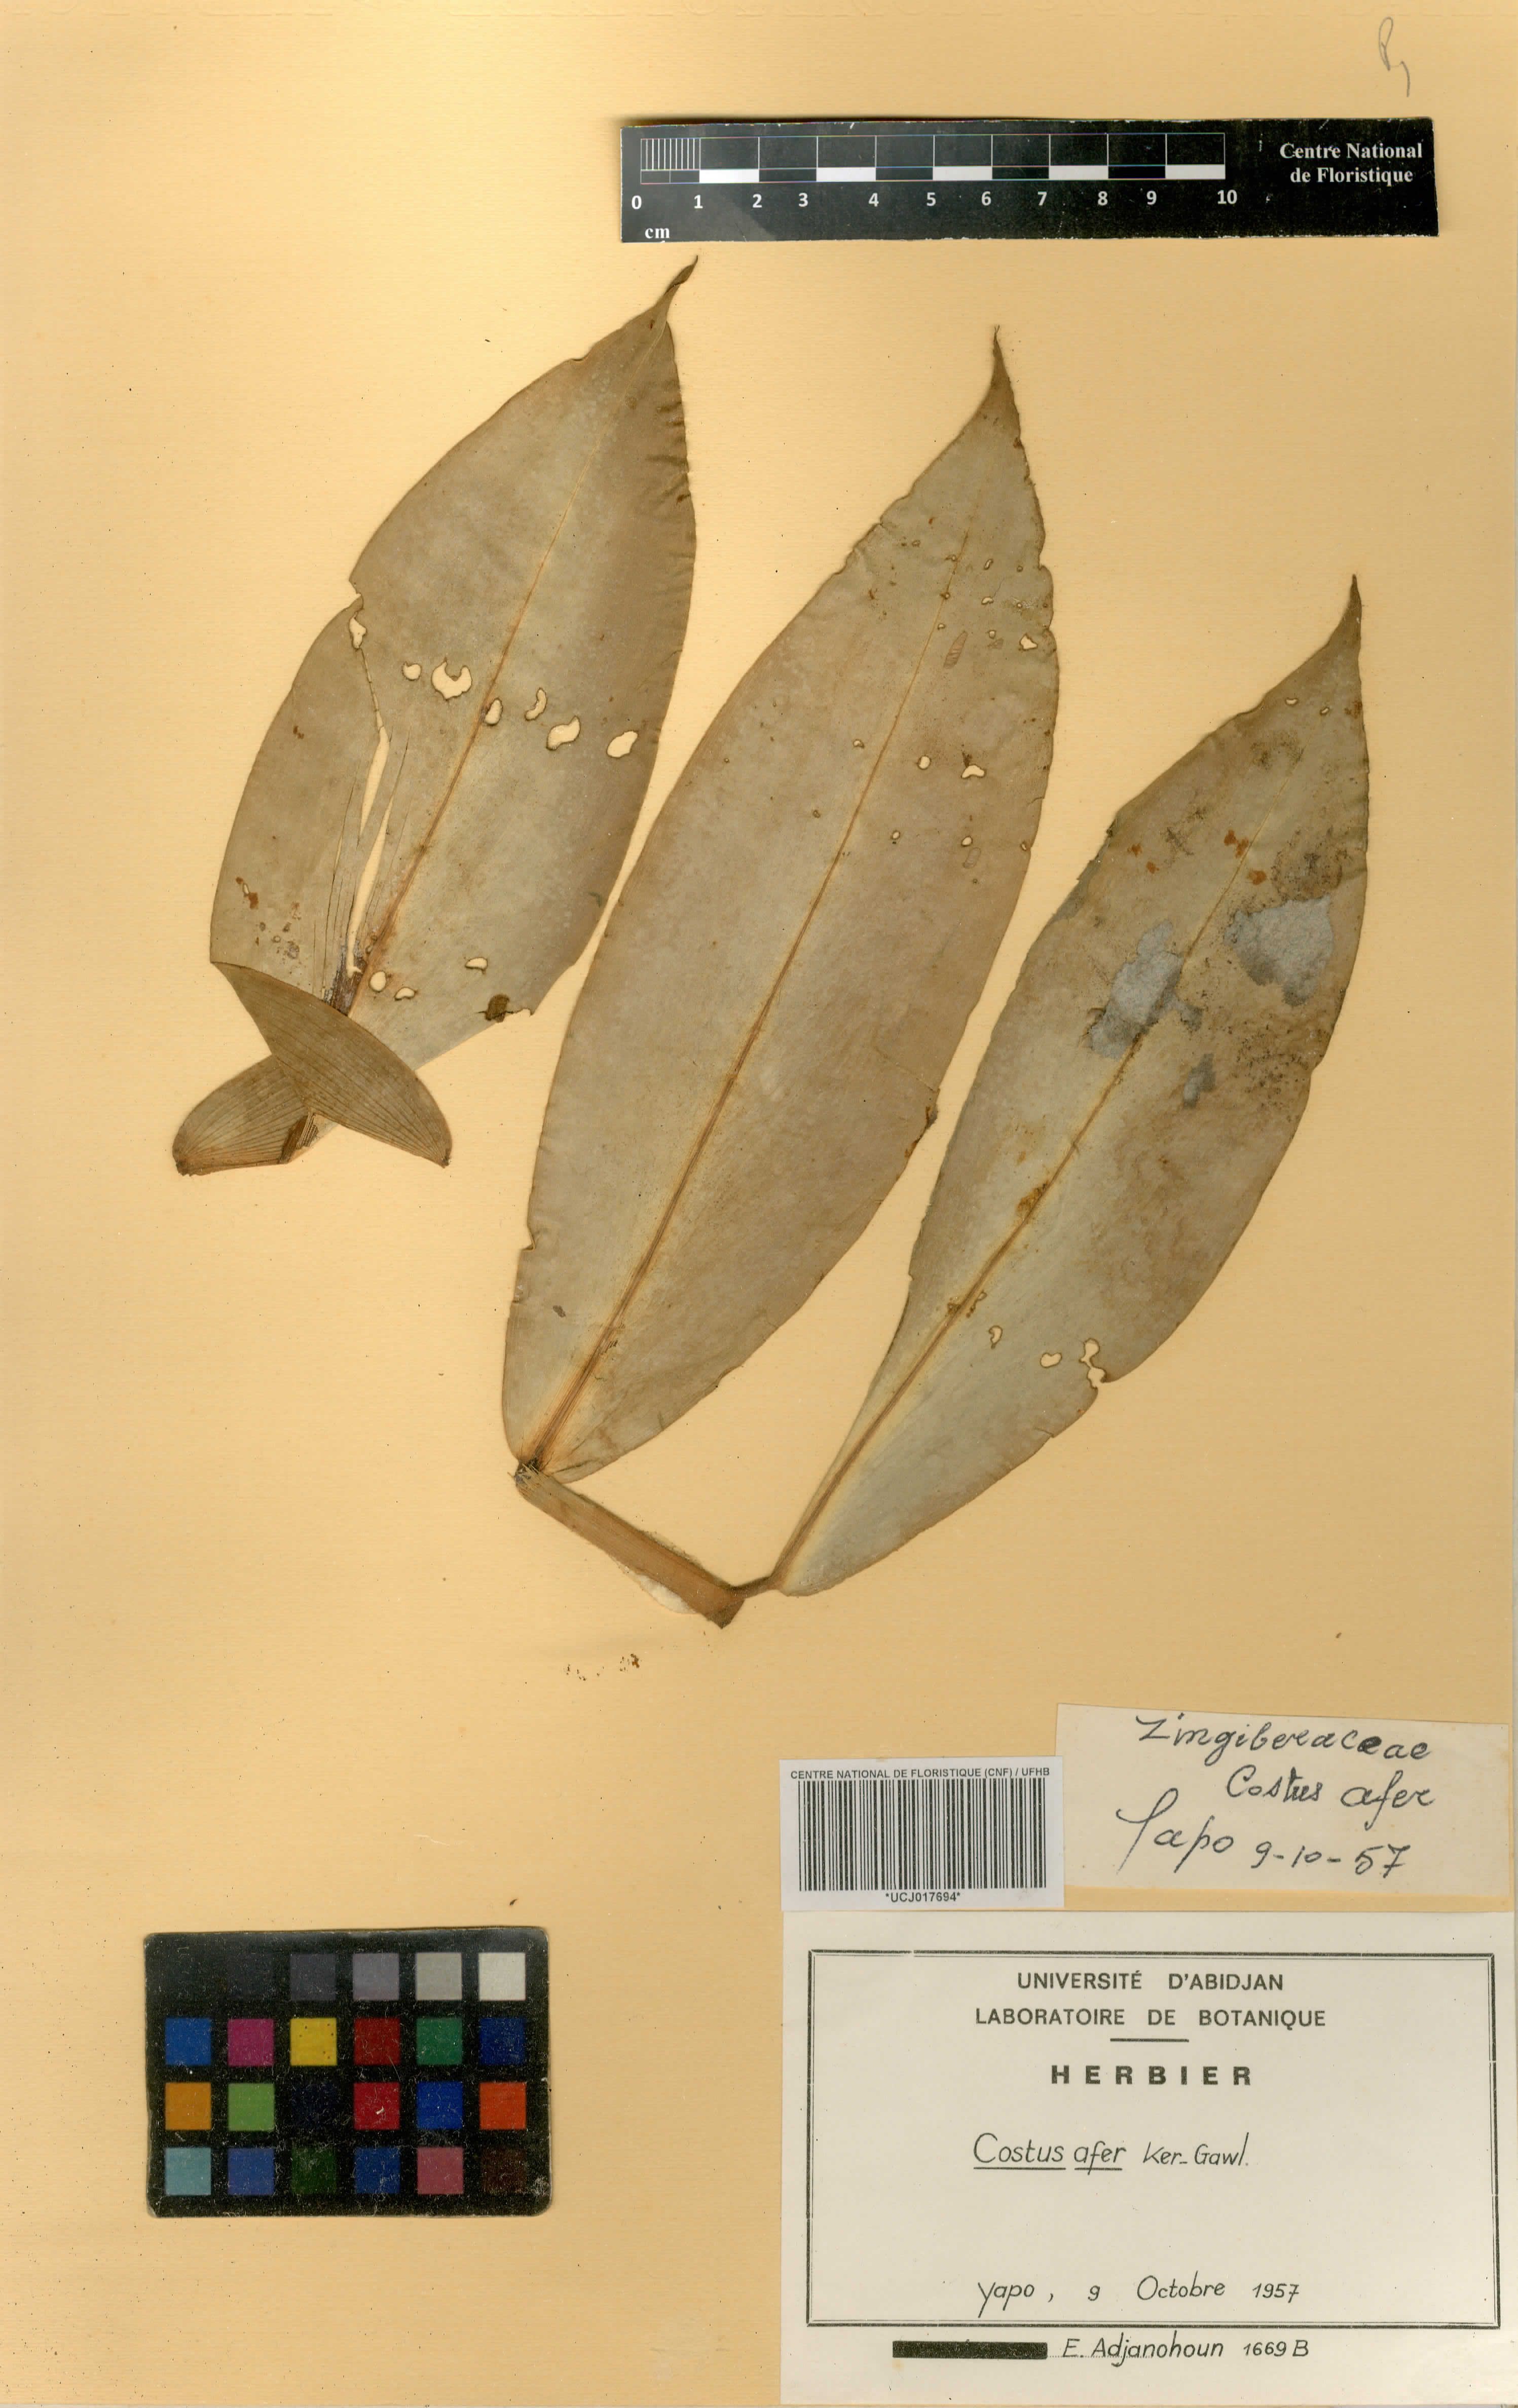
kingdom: Plantae
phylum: Tracheophyta
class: Liliopsida
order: Zingiberales
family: Costaceae
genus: Costus
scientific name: Costus afer
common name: Spiral-ginger
